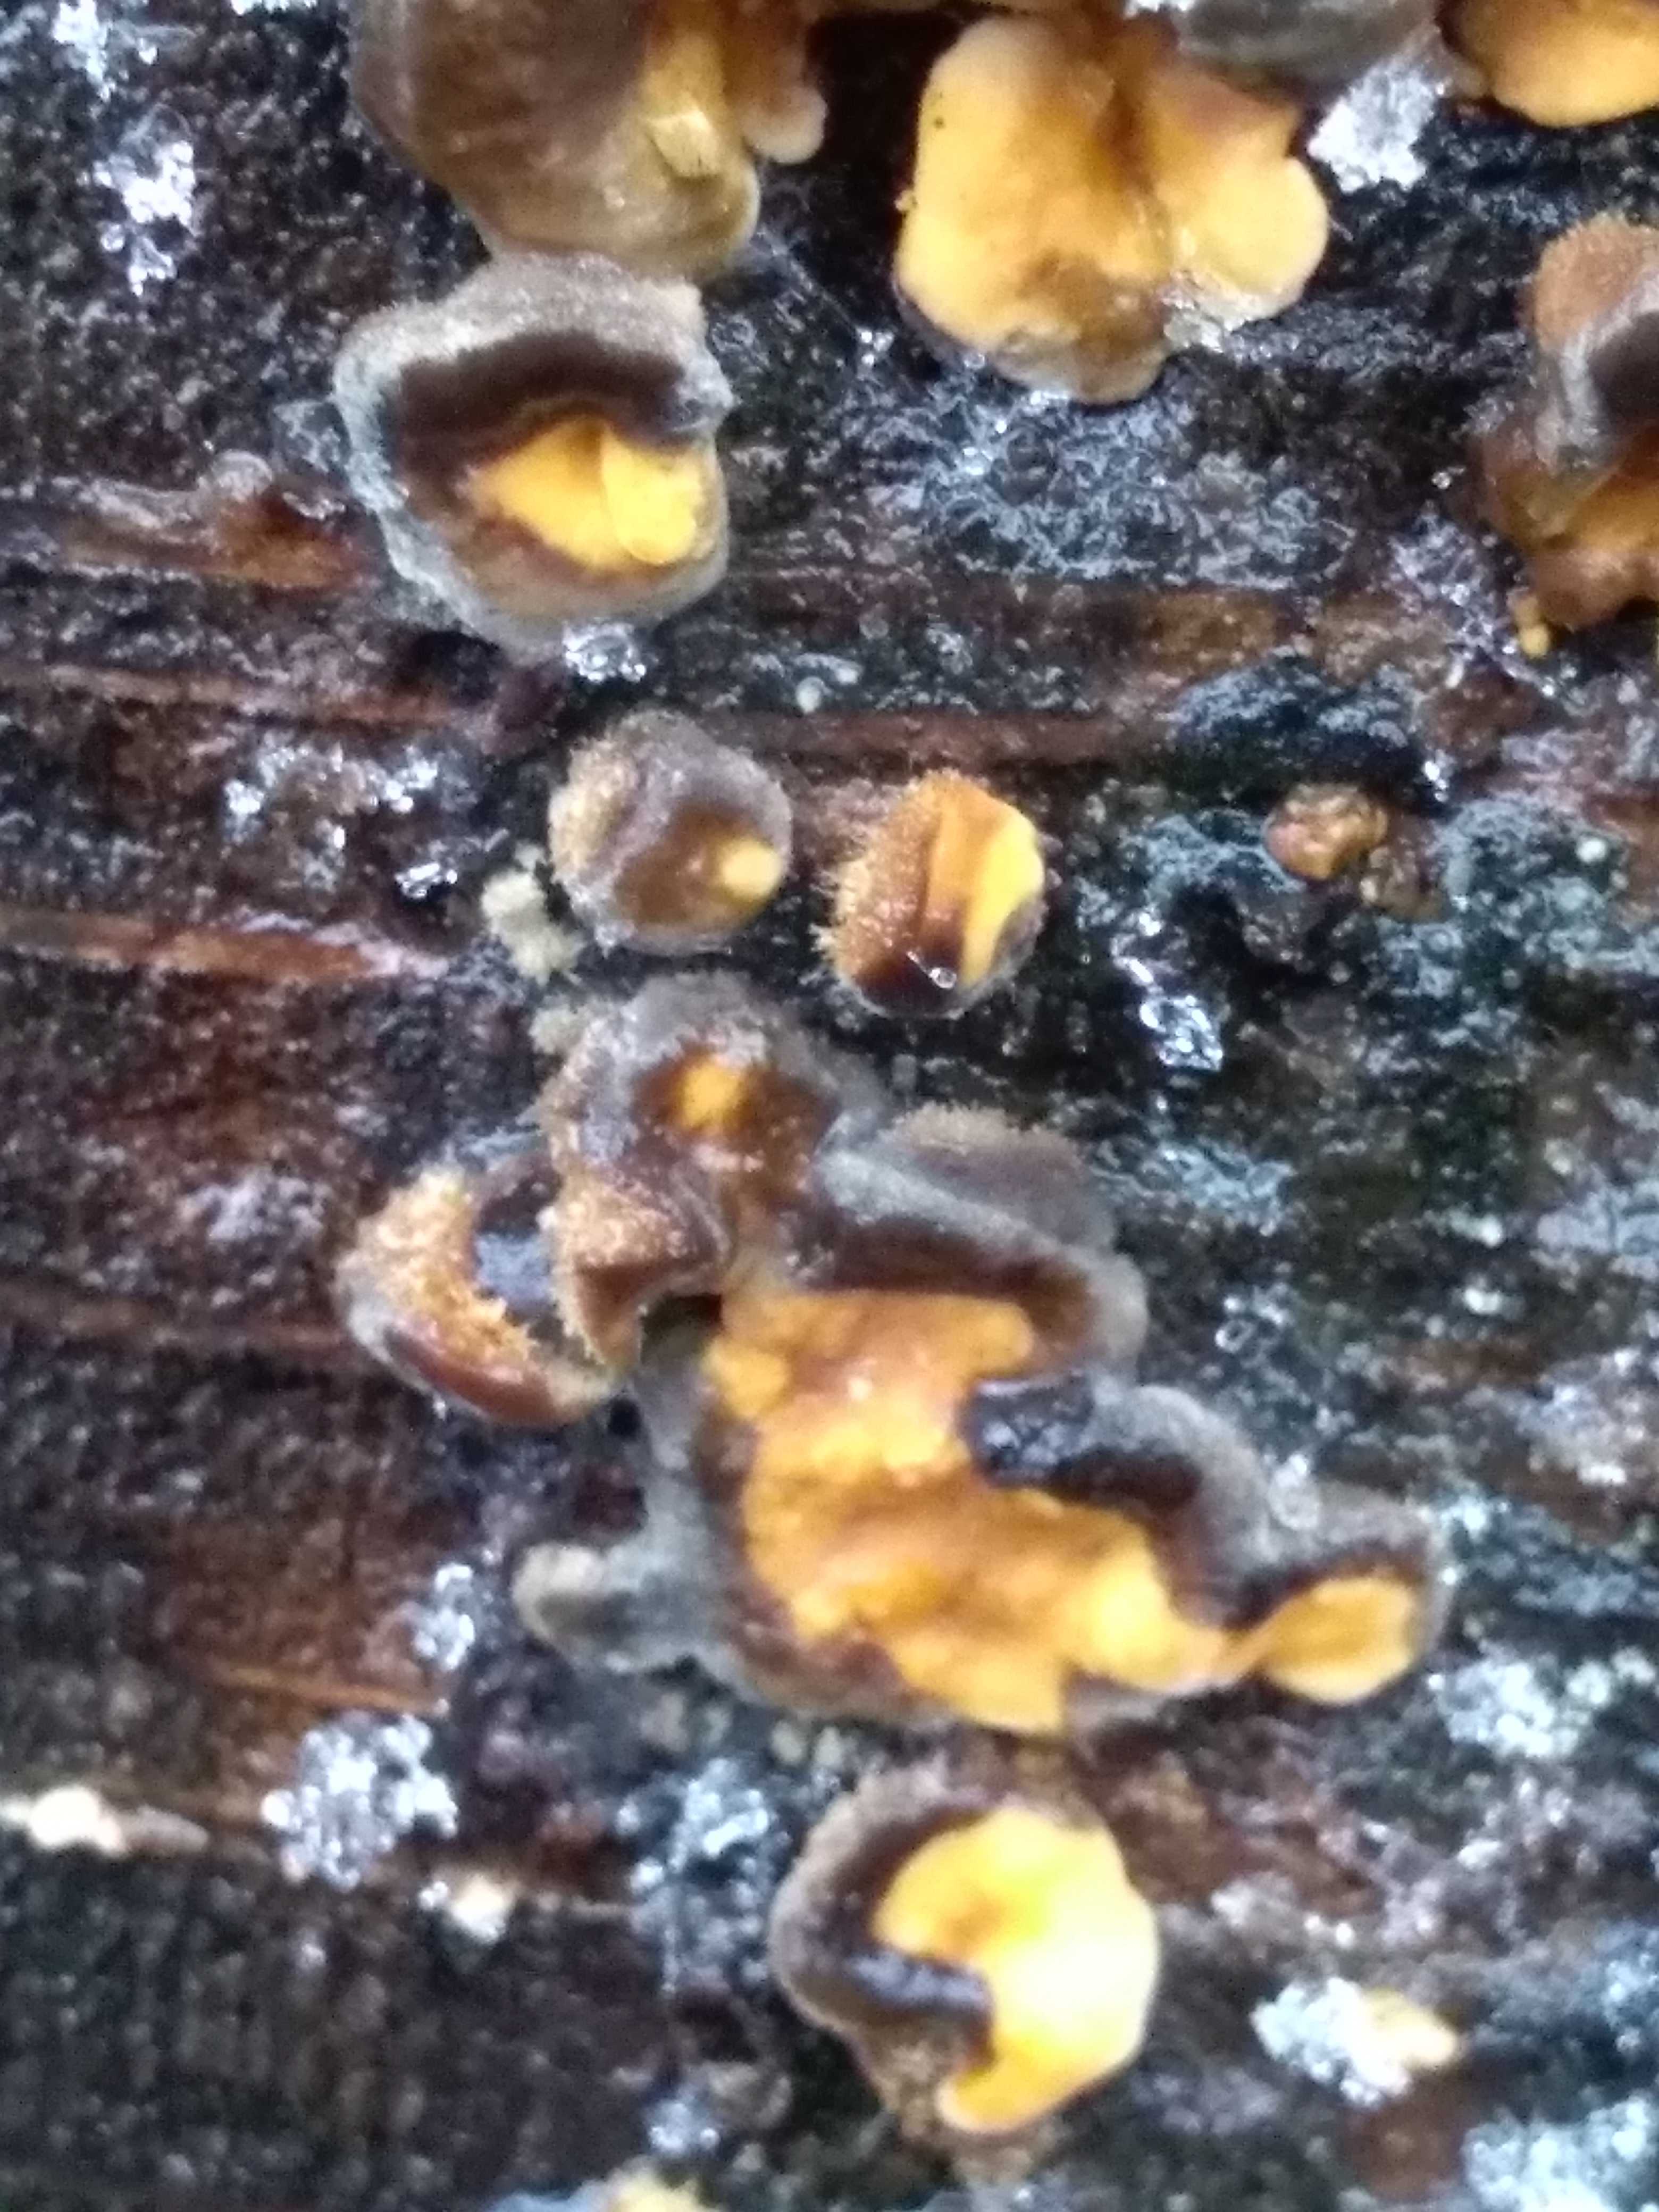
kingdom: Fungi
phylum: Basidiomycota
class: Agaricomycetes
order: Russulales
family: Stereaceae
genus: Stereum
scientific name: Stereum hirsutum
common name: håret lædersvamp
